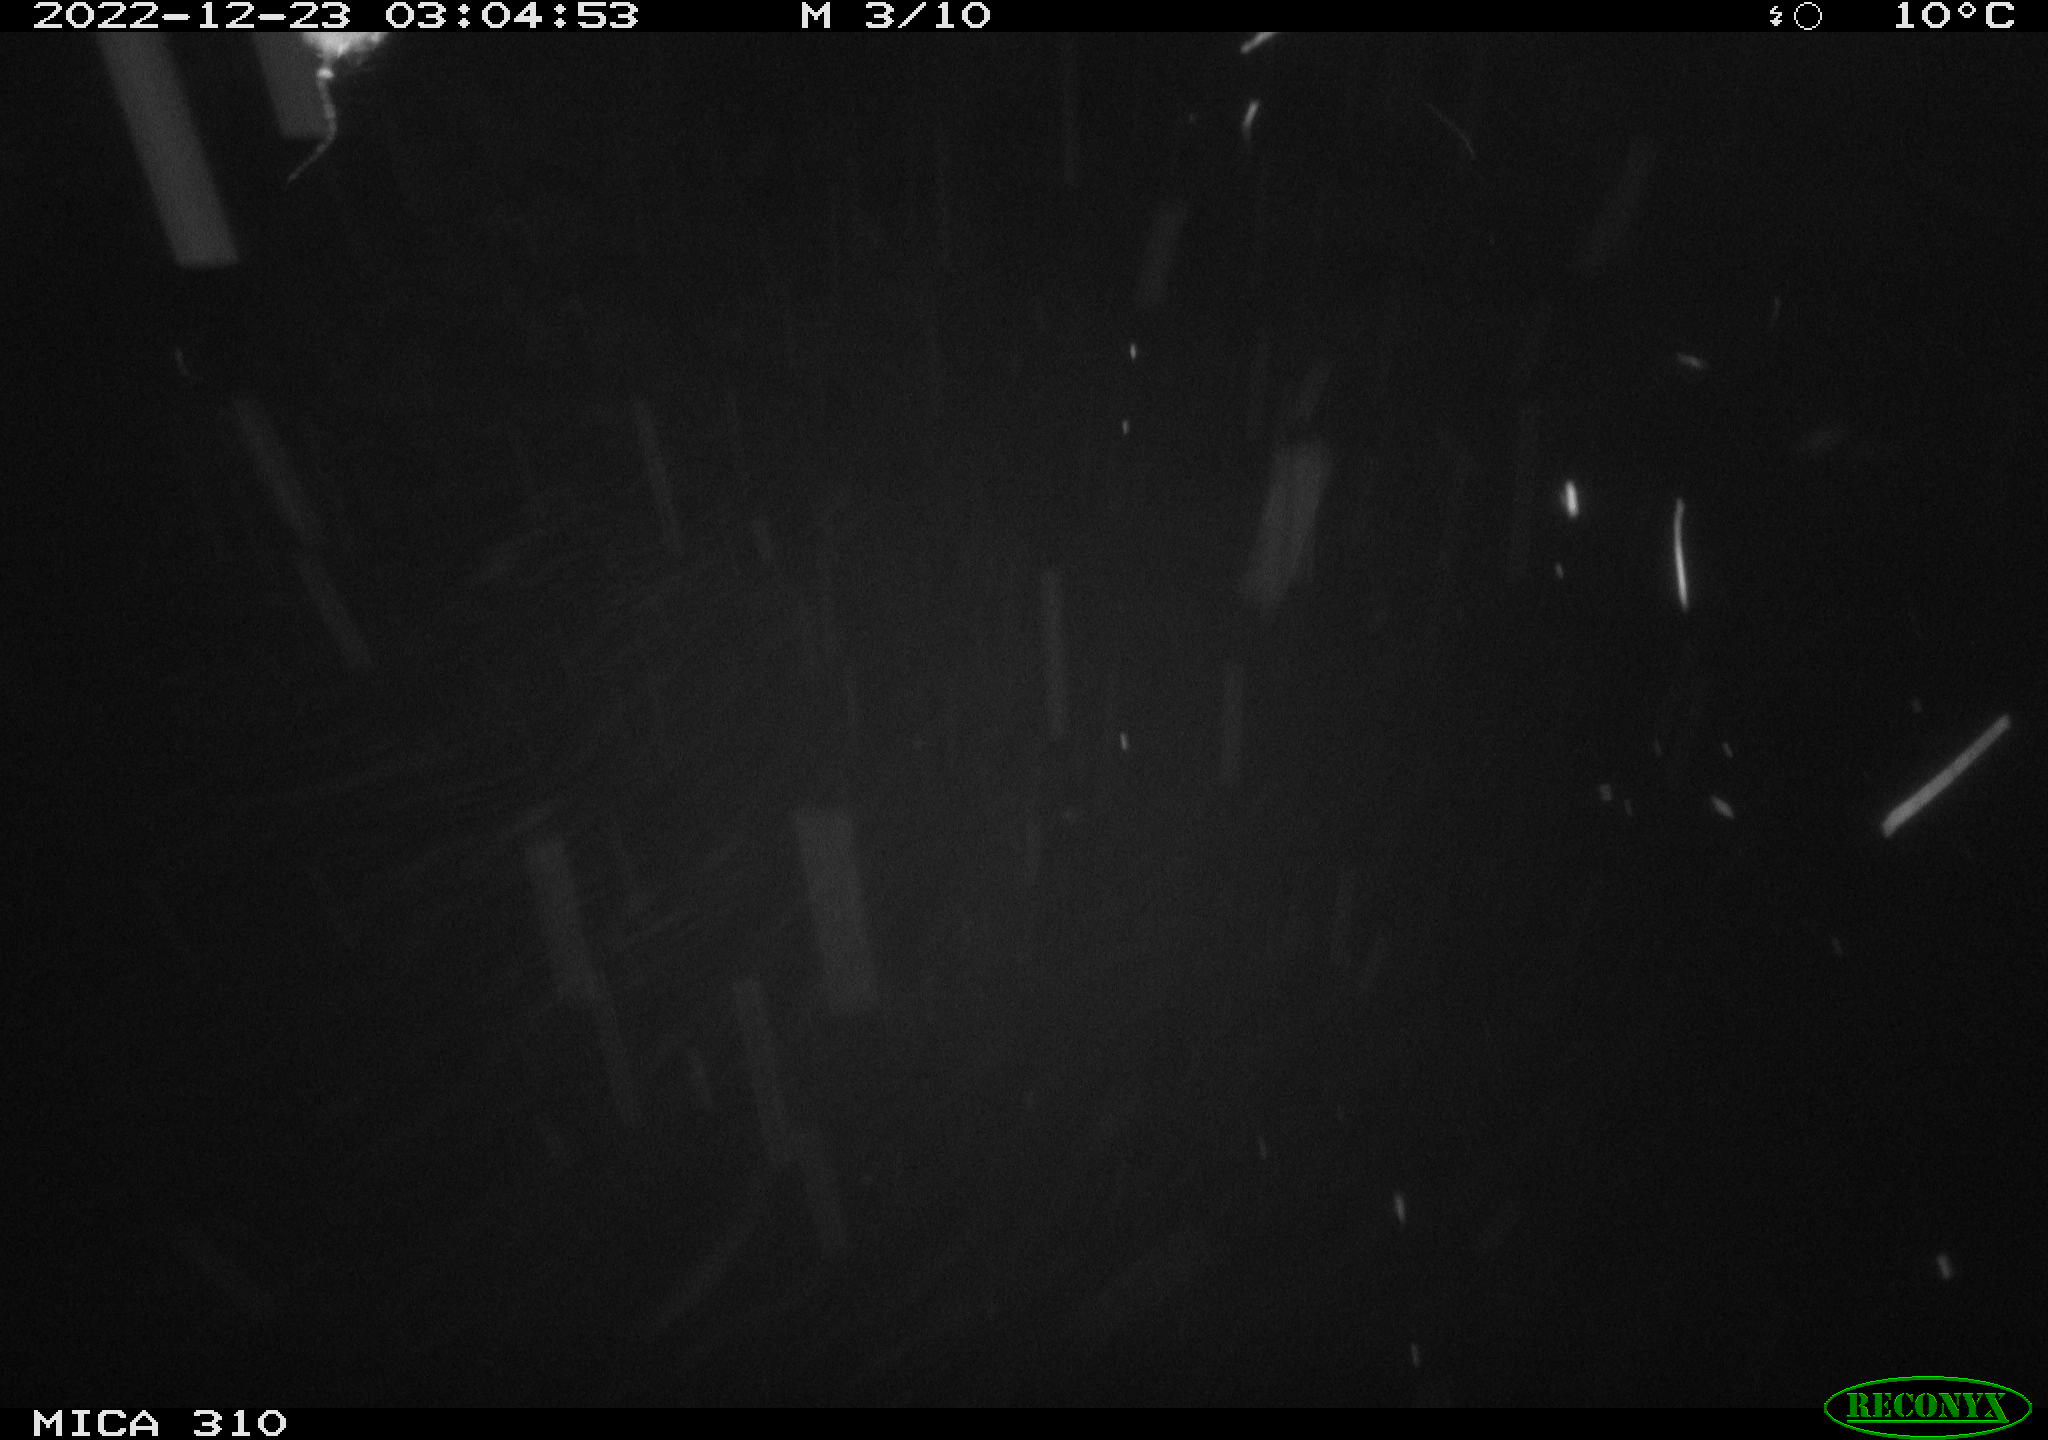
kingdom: Animalia
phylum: Chordata
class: Mammalia
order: Rodentia
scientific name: Rodentia
